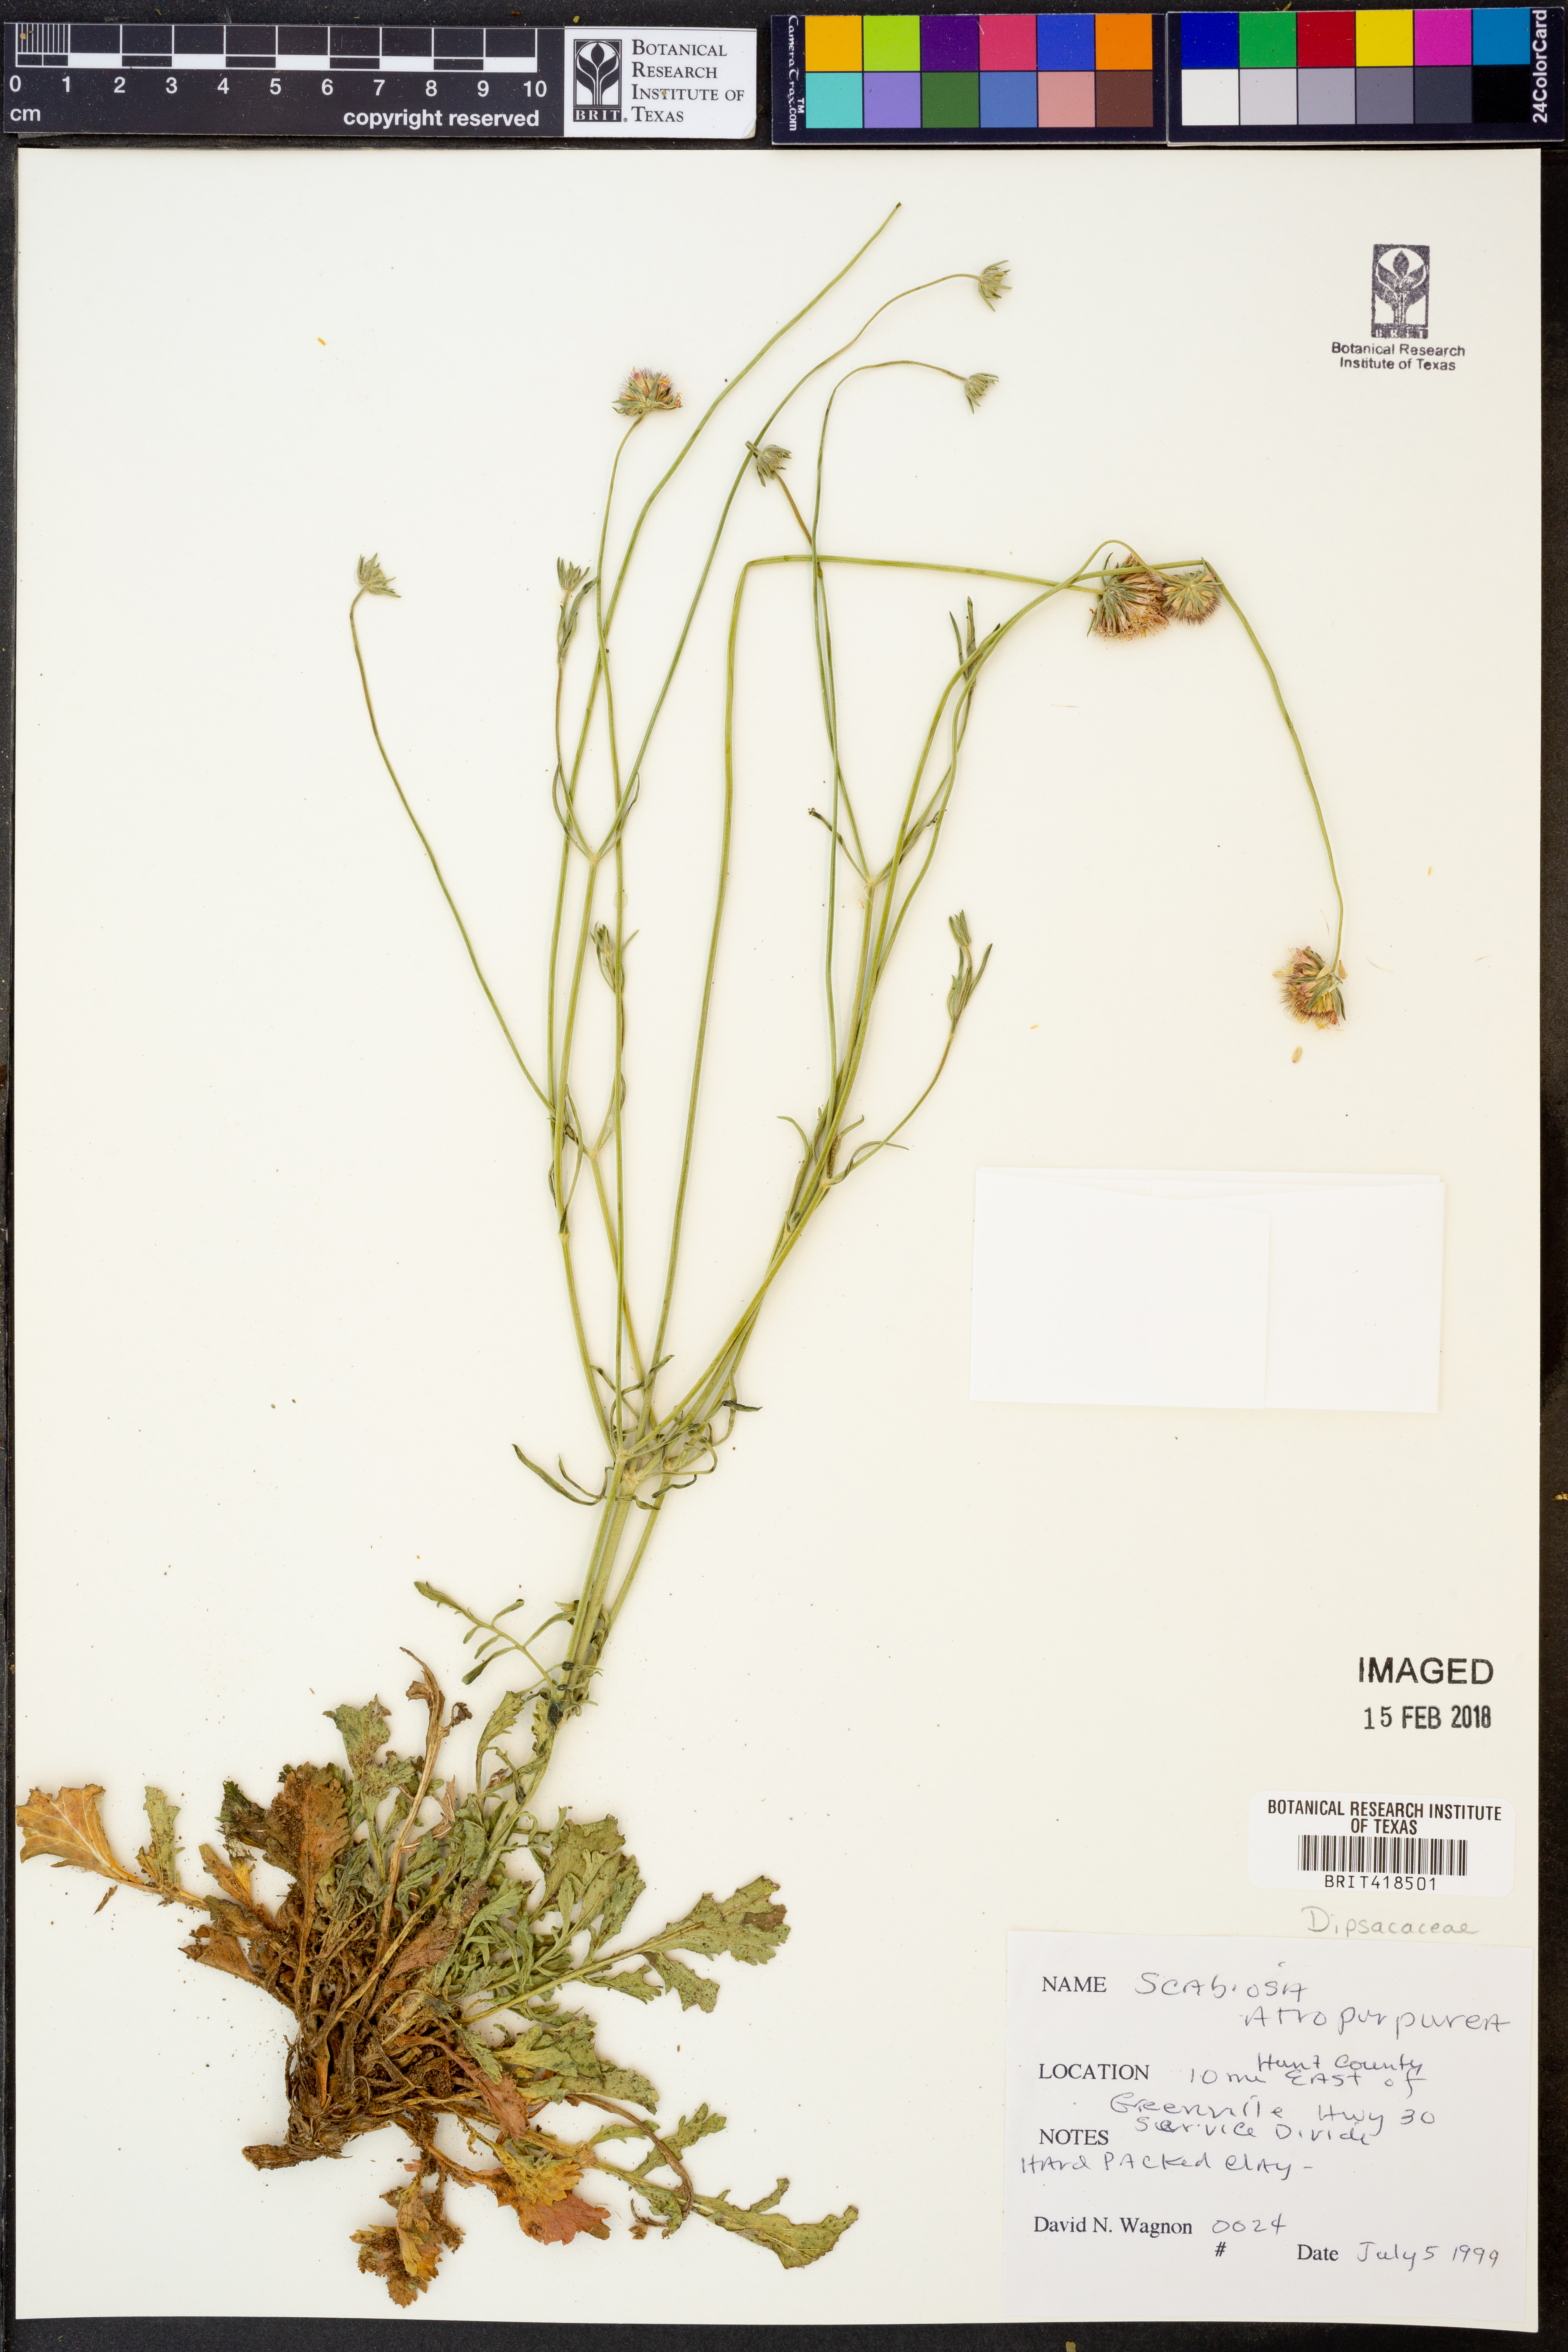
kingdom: Plantae
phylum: Tracheophyta
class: Magnoliopsida
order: Dipsacales
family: Caprifoliaceae
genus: Sixalix
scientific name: Sixalix atropurpurea
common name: Sweet scabious
